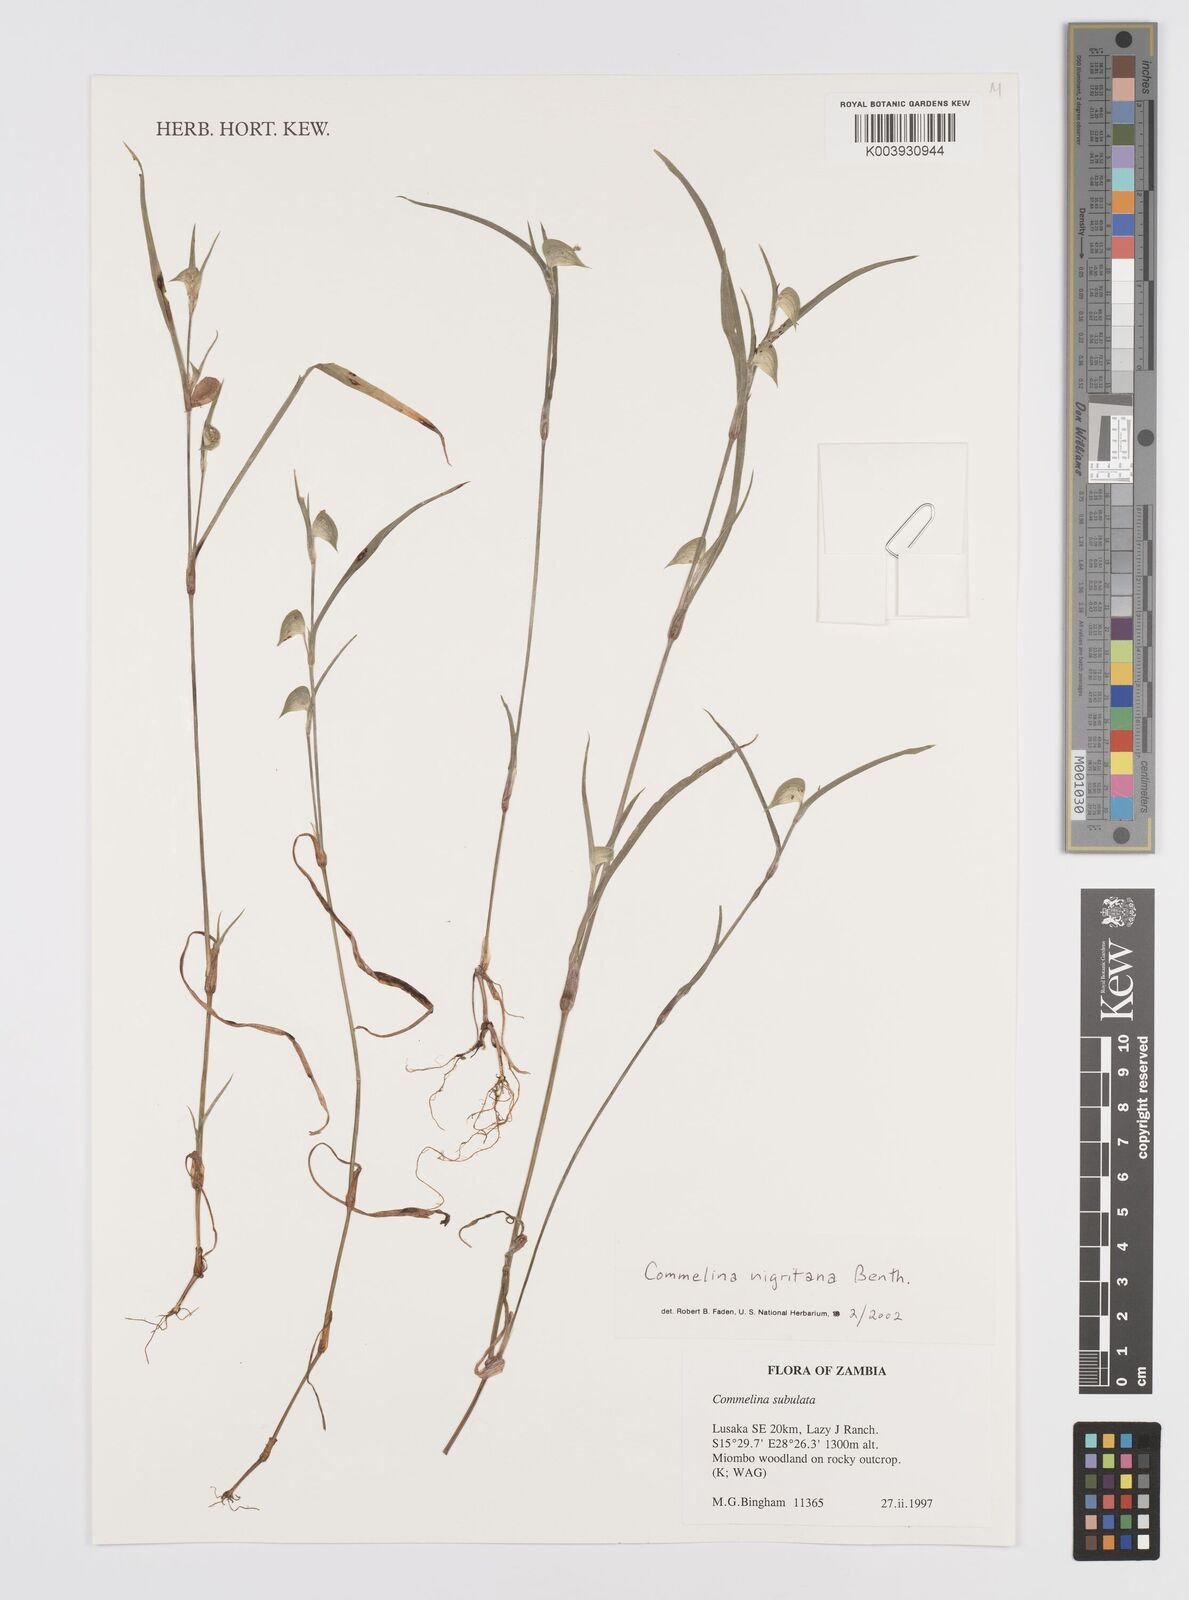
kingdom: Plantae
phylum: Tracheophyta
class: Liliopsida
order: Commelinales
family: Commelinaceae
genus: Commelina
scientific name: Commelina nigritana
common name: African dayflower
